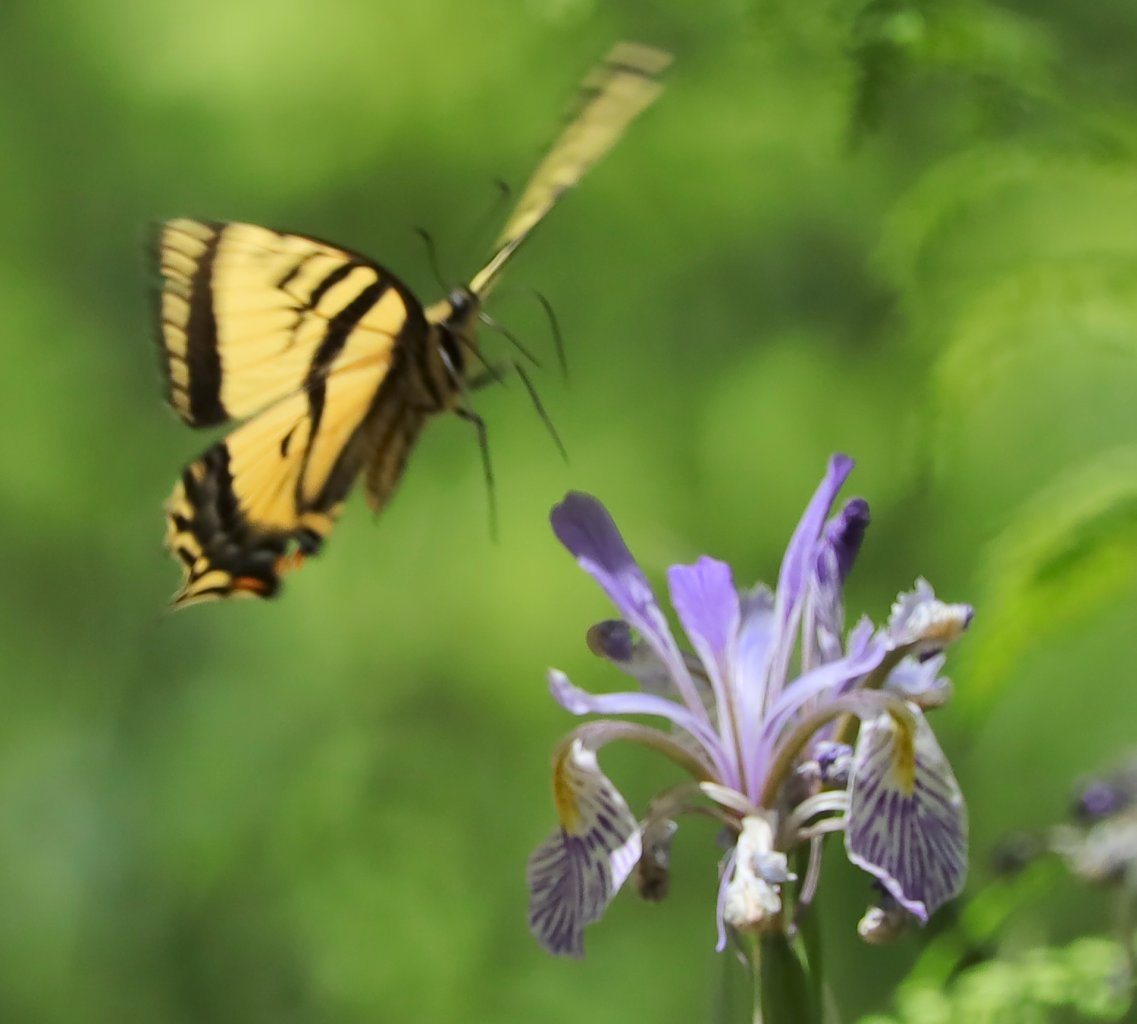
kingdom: Animalia
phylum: Arthropoda
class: Insecta
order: Lepidoptera
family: Papilionidae
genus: Pterourus
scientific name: Pterourus rutulus
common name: Western Tiger Swallowtail
